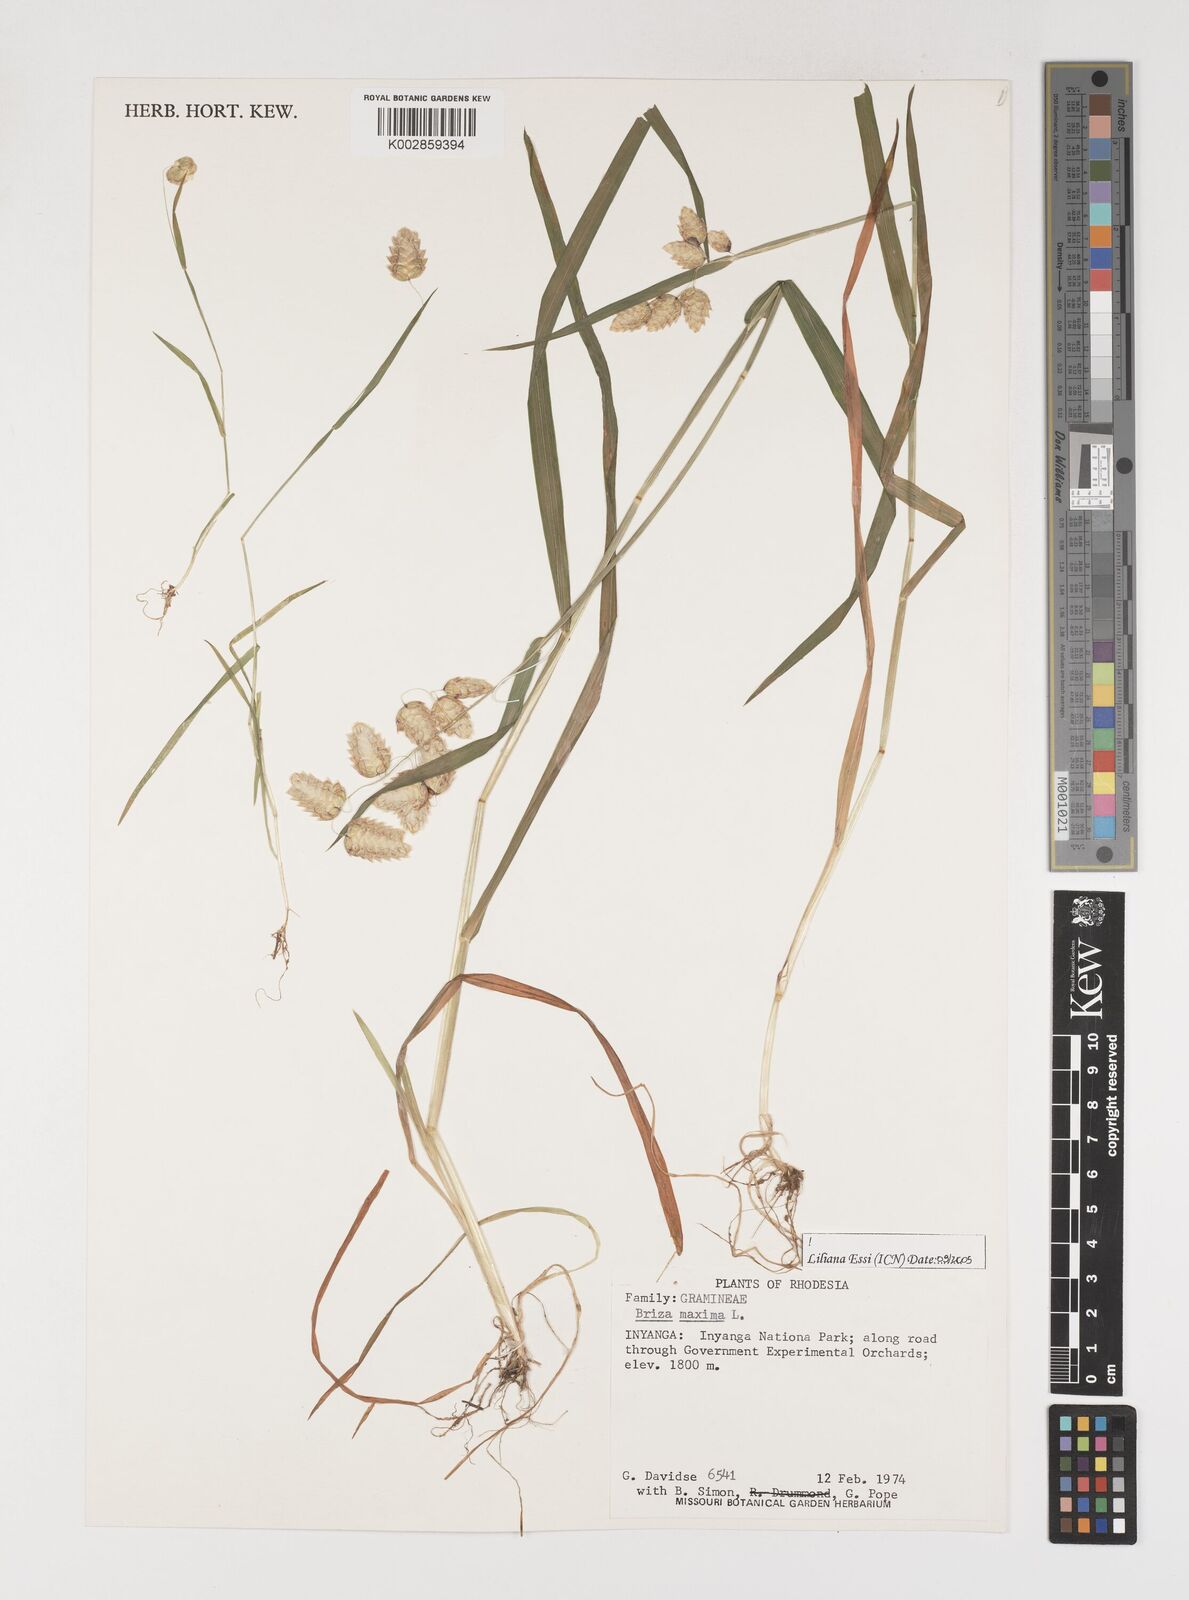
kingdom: Plantae
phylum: Tracheophyta
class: Liliopsida
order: Poales
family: Poaceae
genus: Briza
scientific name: Briza maxima
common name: Big quakinggrass
